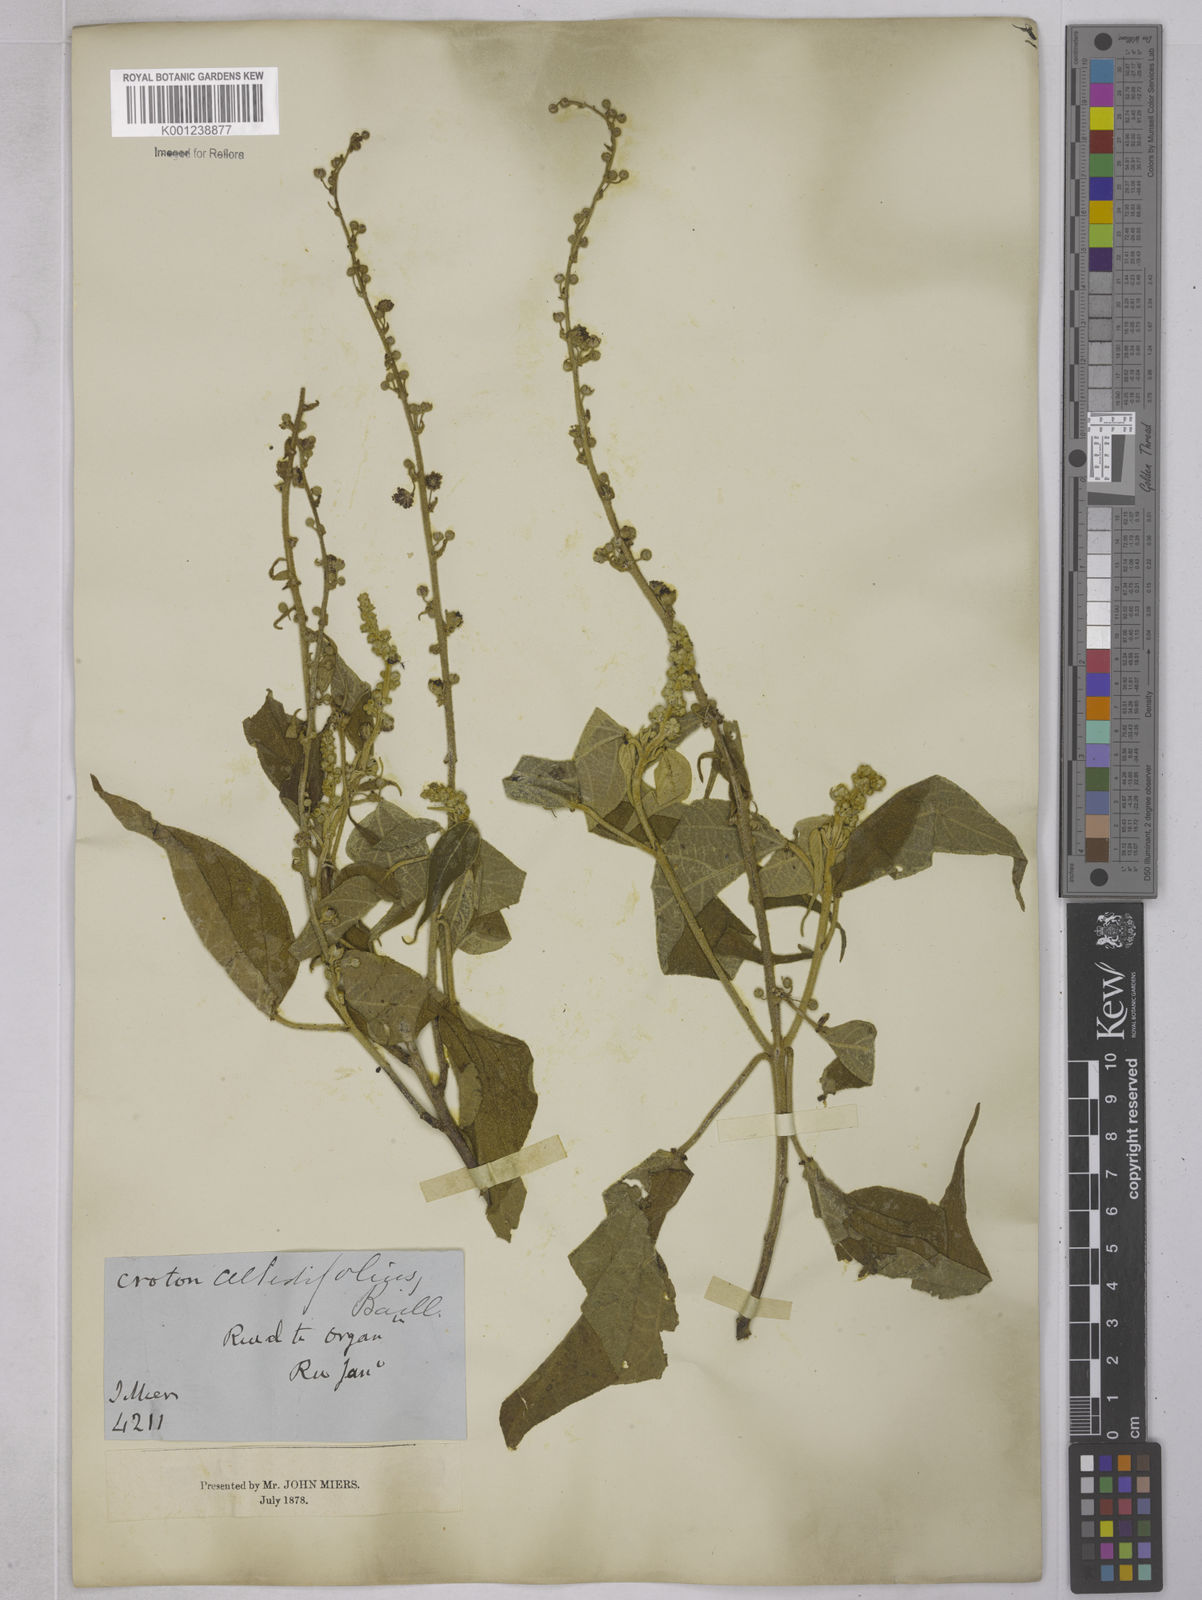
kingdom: Plantae
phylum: Tracheophyta
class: Magnoliopsida
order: Malpighiales
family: Euphorbiaceae
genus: Croton
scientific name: Croton celtidifolius
